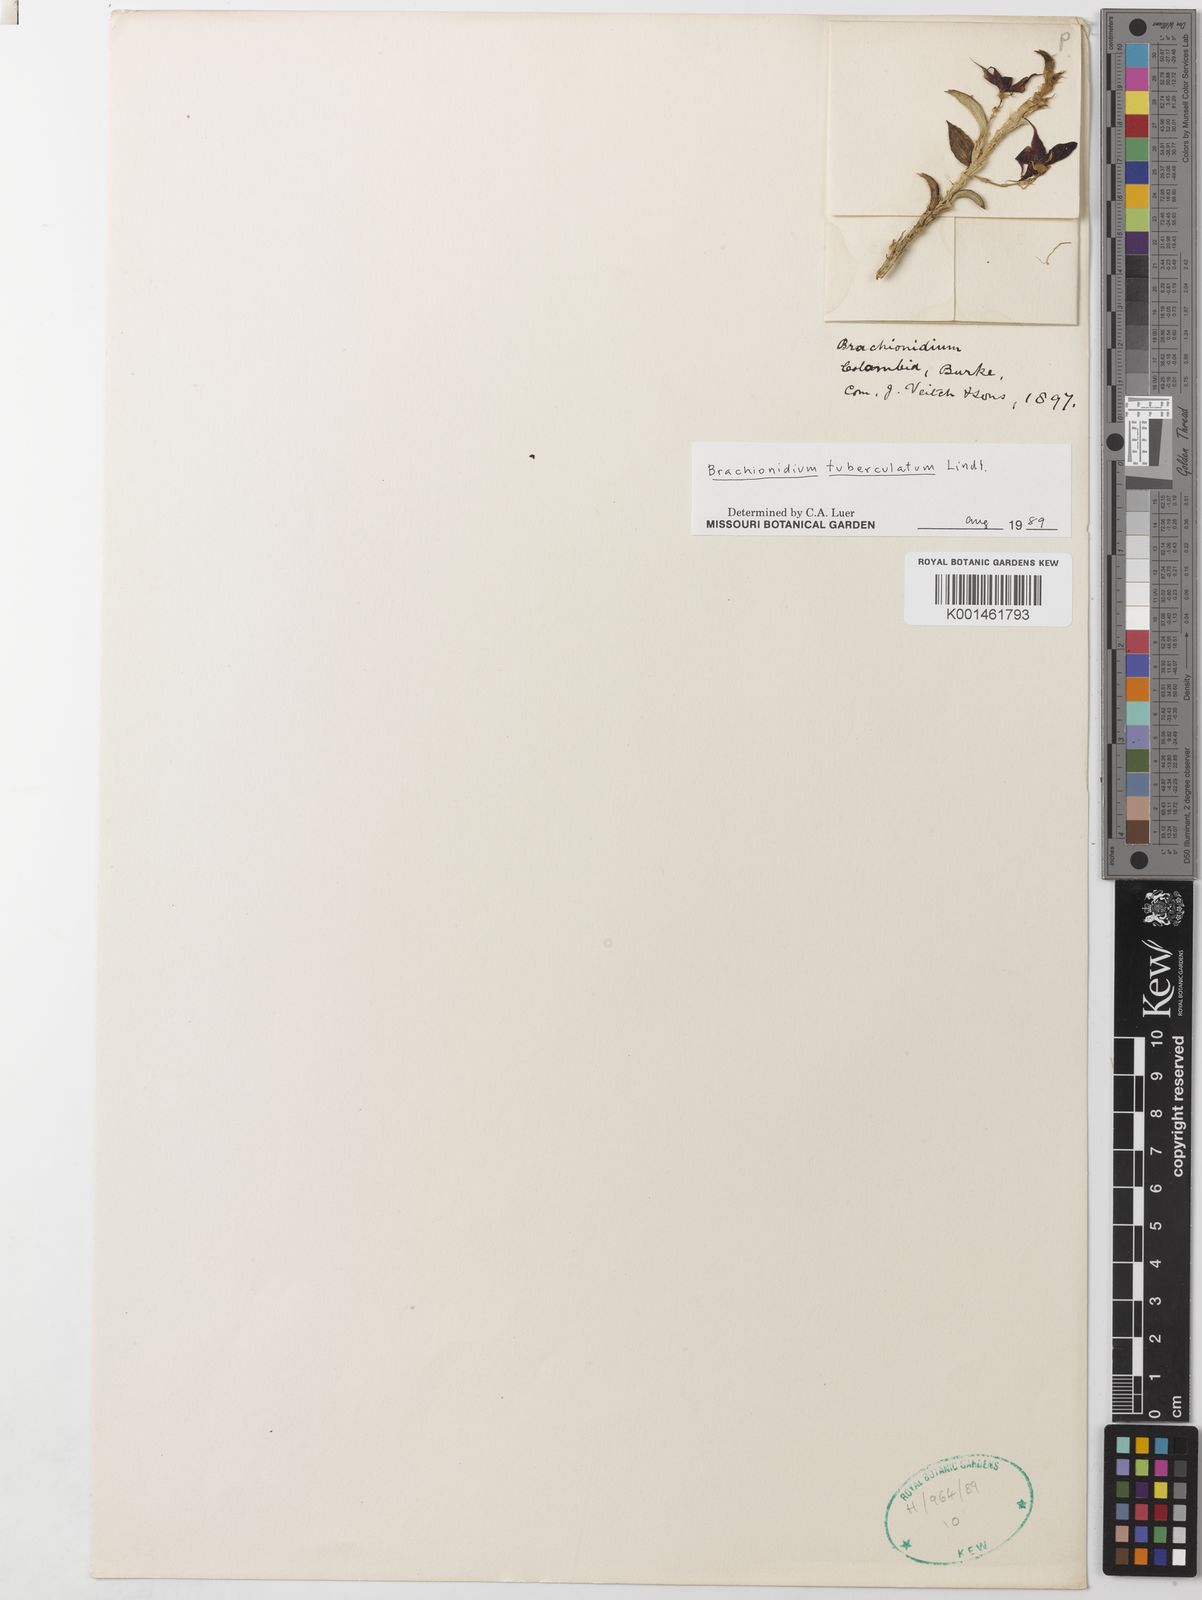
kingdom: Plantae
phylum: Tracheophyta
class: Liliopsida
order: Asparagales
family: Orchidaceae
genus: Brachionidium
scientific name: Brachionidium tuberculatum
